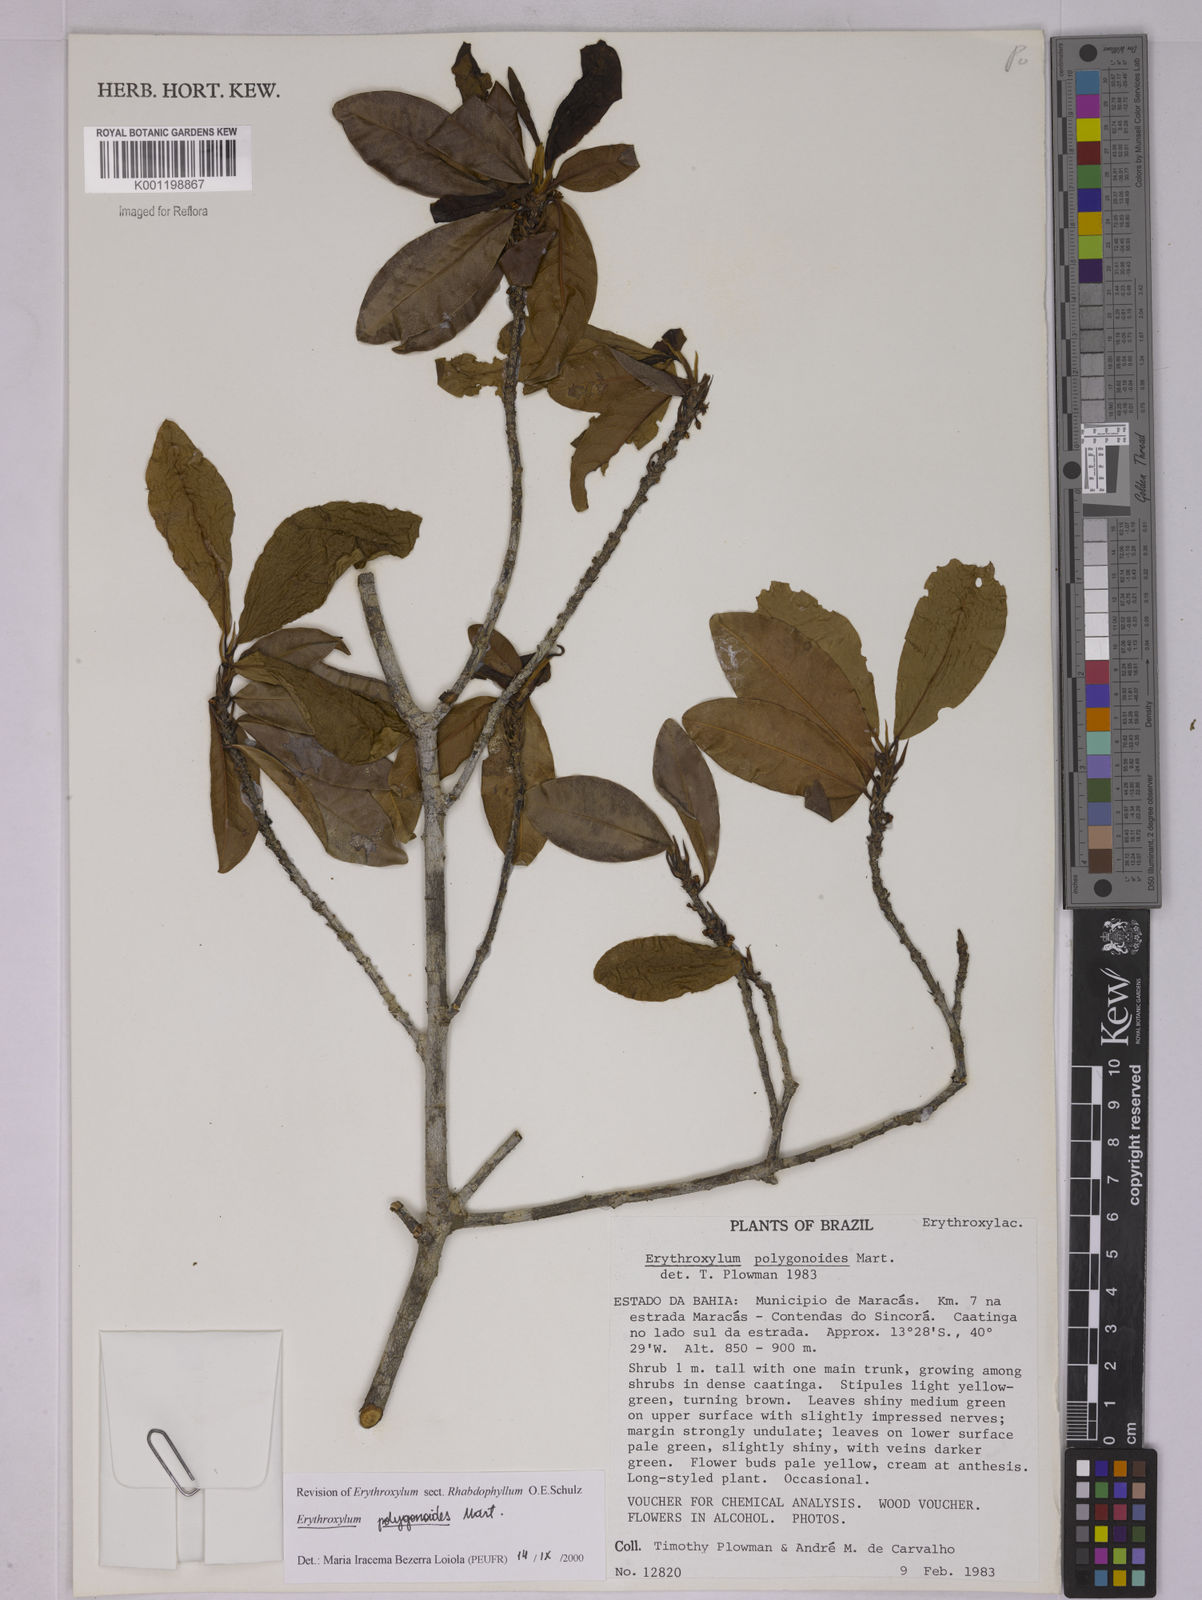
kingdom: Plantae
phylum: Tracheophyta
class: Magnoliopsida
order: Malpighiales
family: Erythroxylaceae
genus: Erythroxylum
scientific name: Erythroxylum polygonoides
